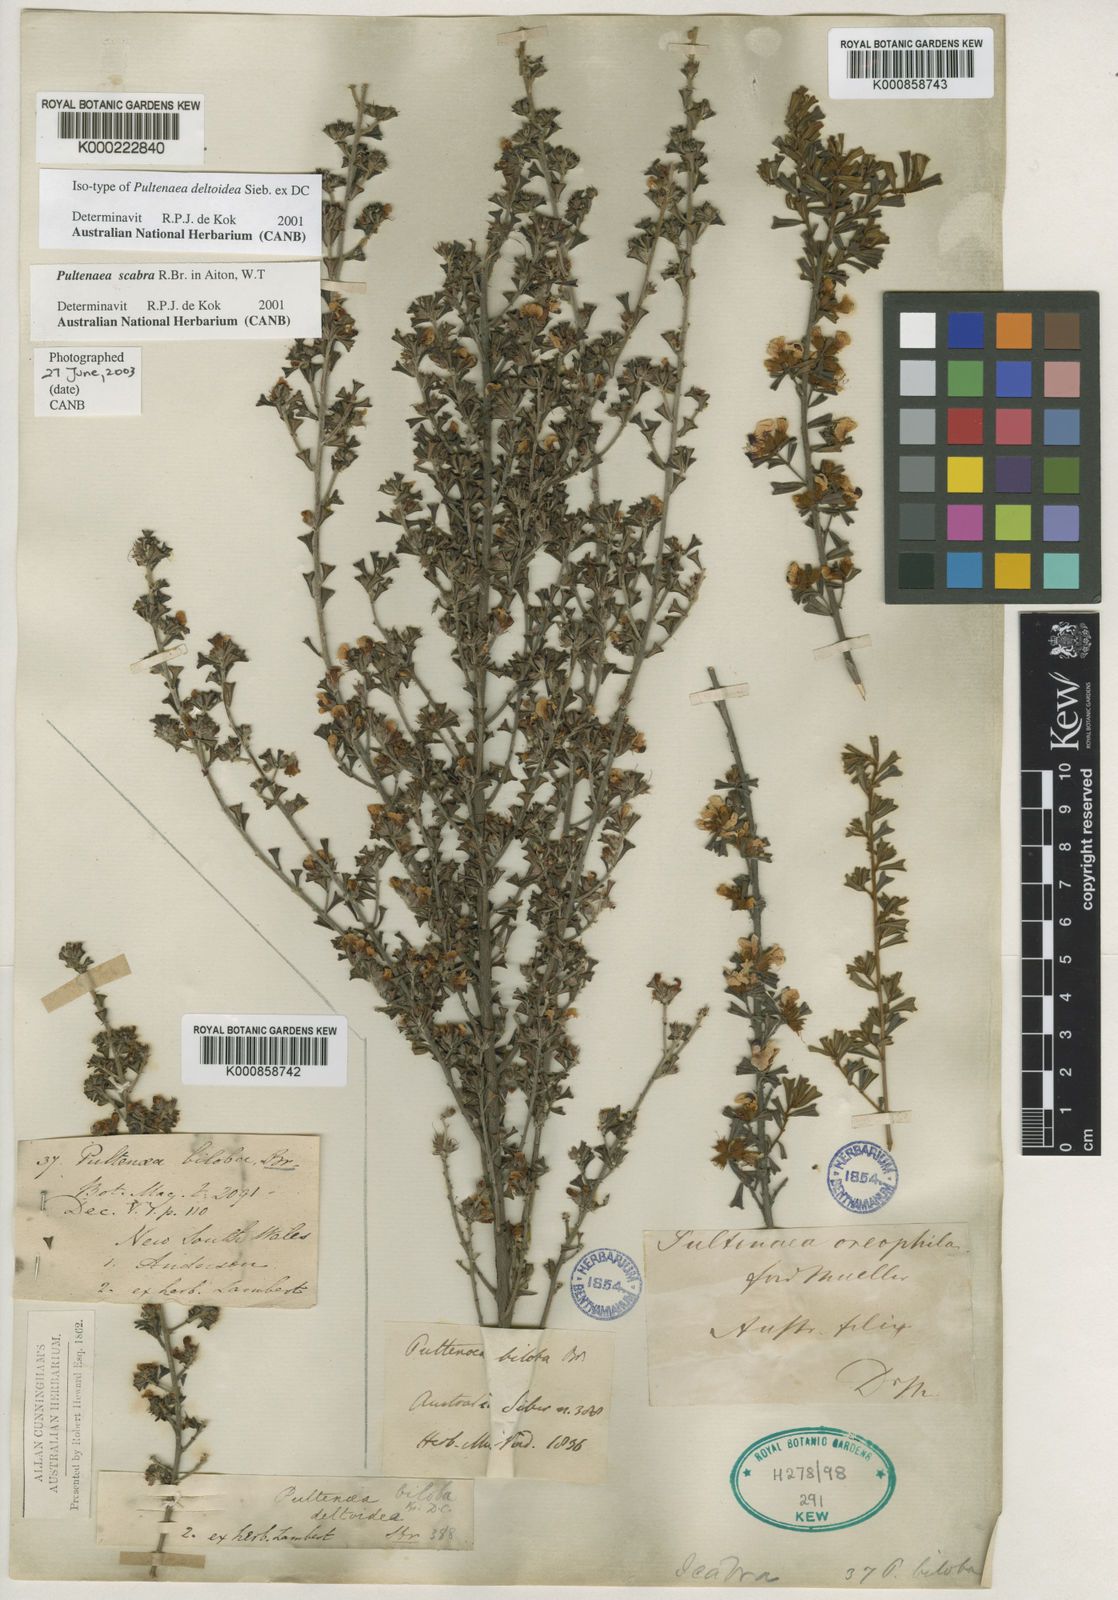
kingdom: Plantae
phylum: Tracheophyta
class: Magnoliopsida
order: Fabales
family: Fabaceae
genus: Pultenaea
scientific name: Pultenaea scabra
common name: Rough bush-pea
